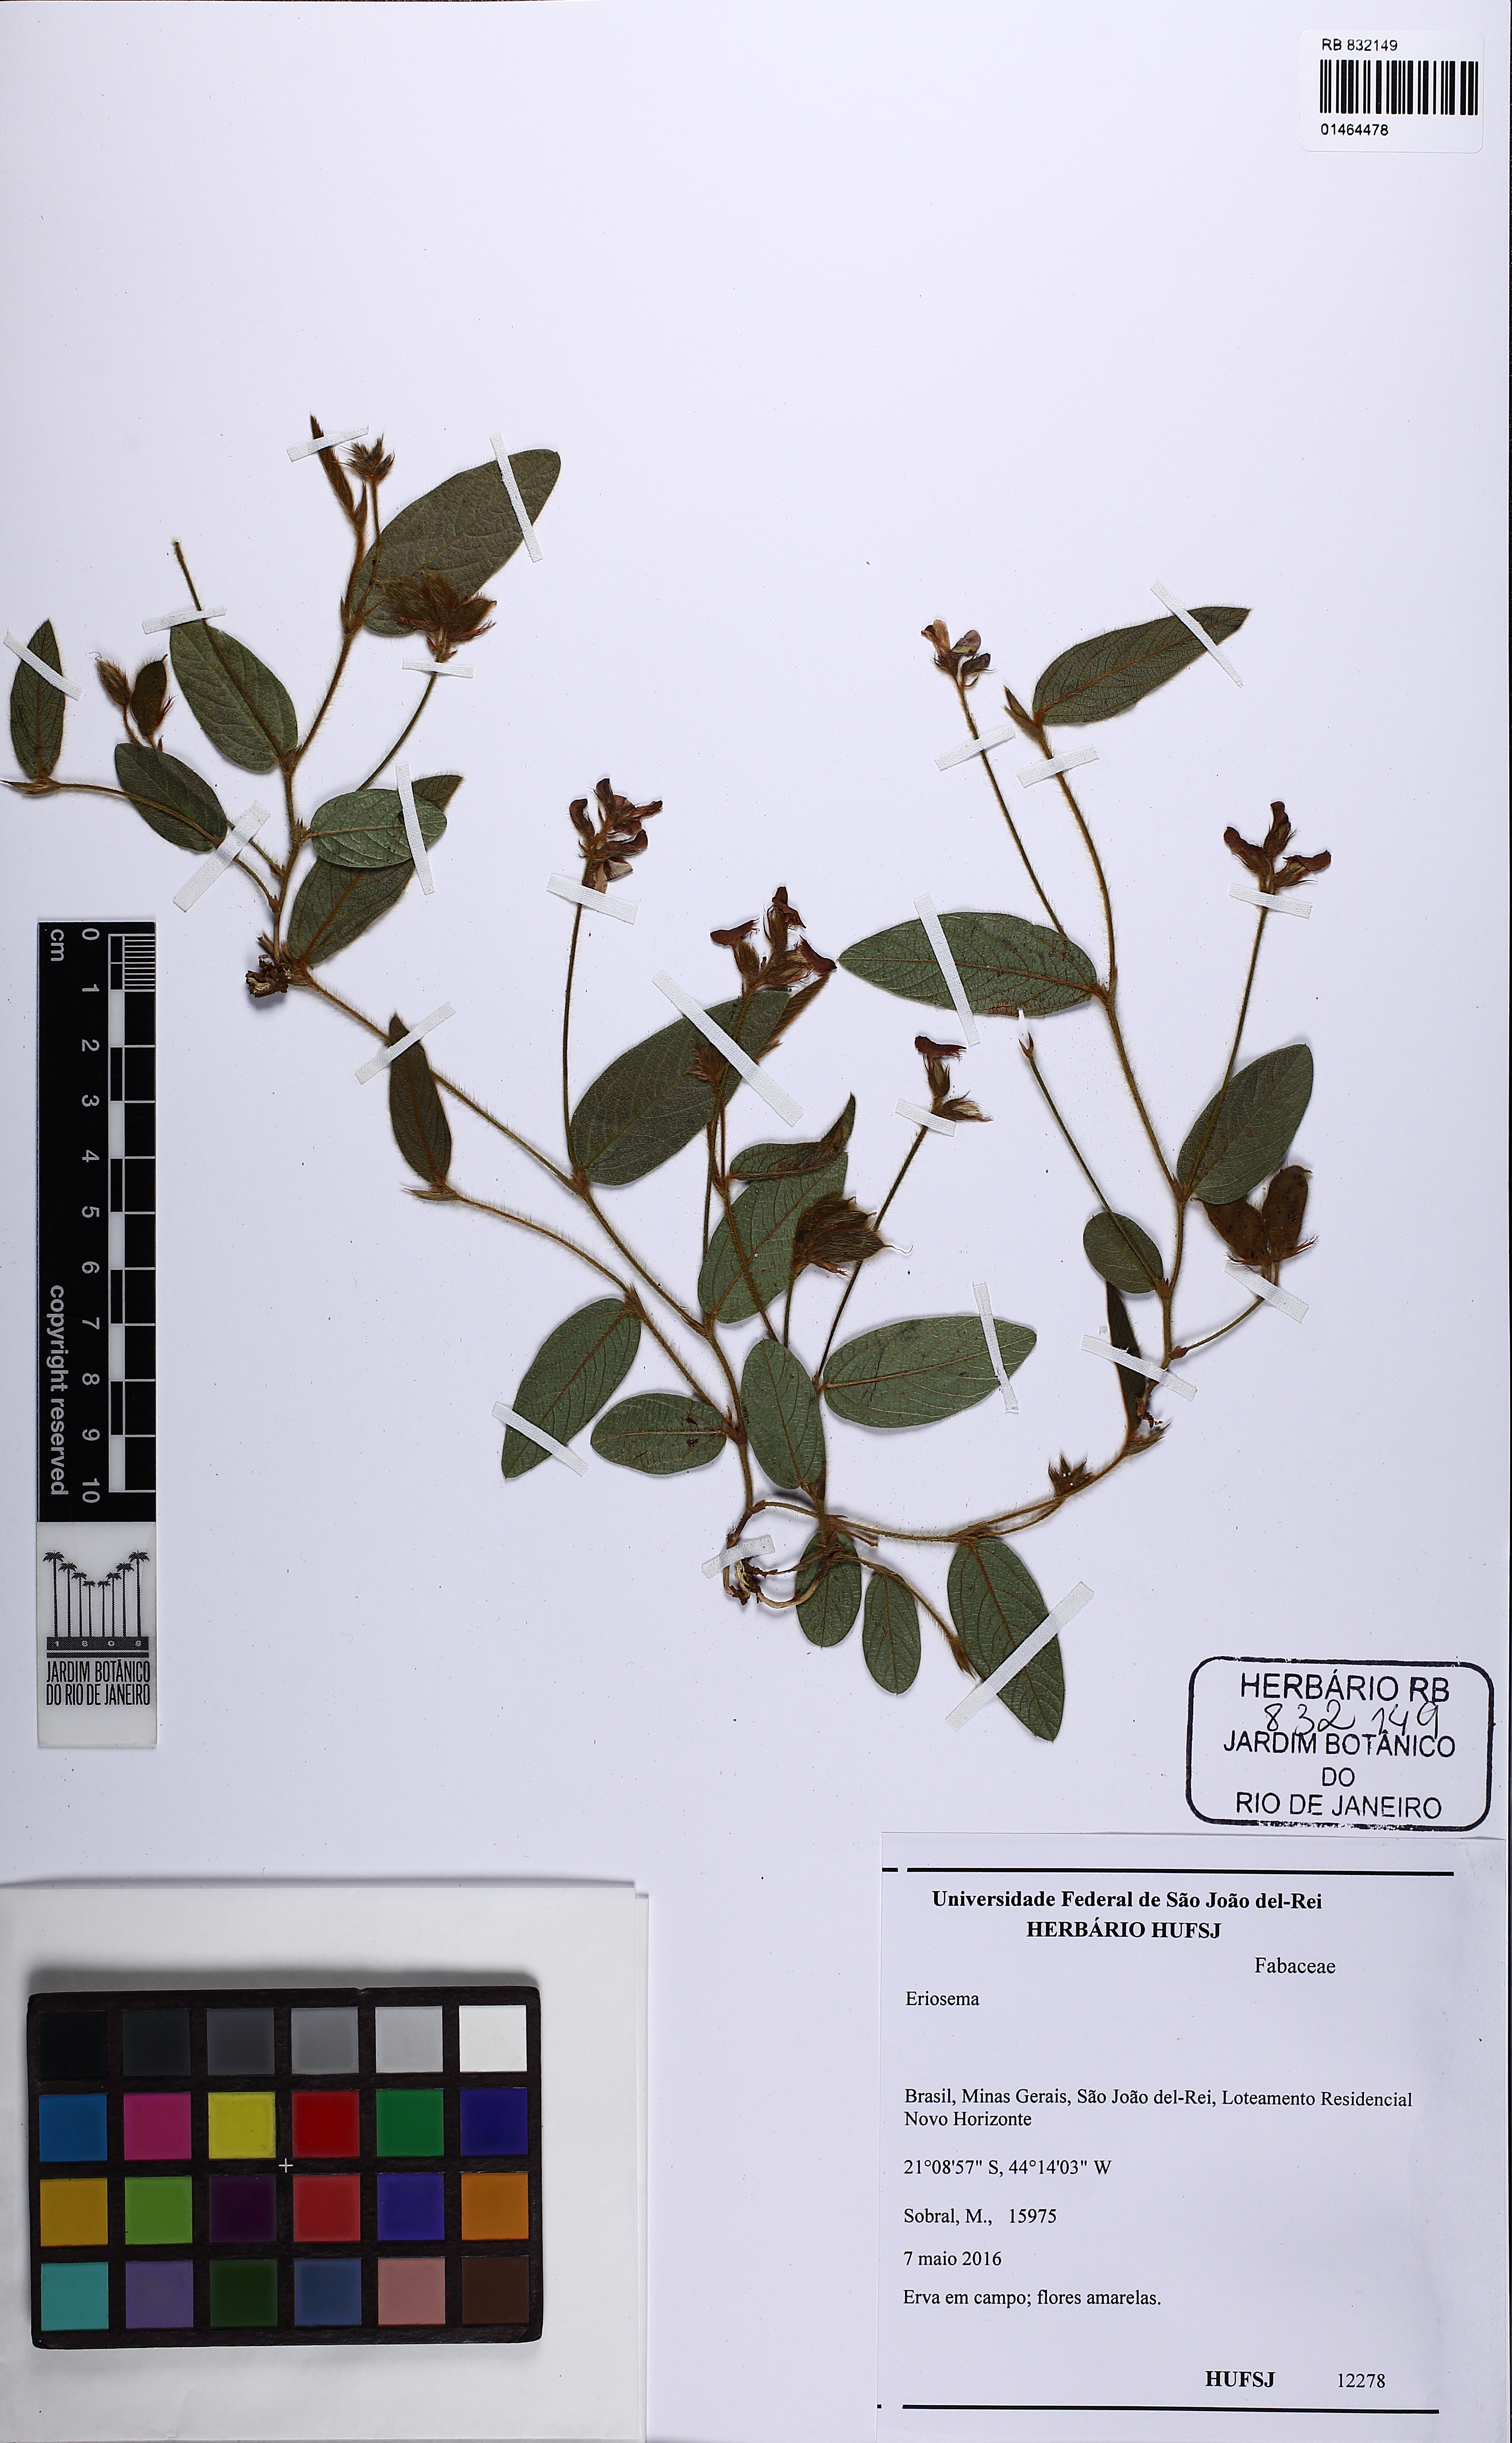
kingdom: Plantae
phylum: Tracheophyta
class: Magnoliopsida
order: Fabales
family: Fabaceae
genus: Eriosema
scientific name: Eriosema
